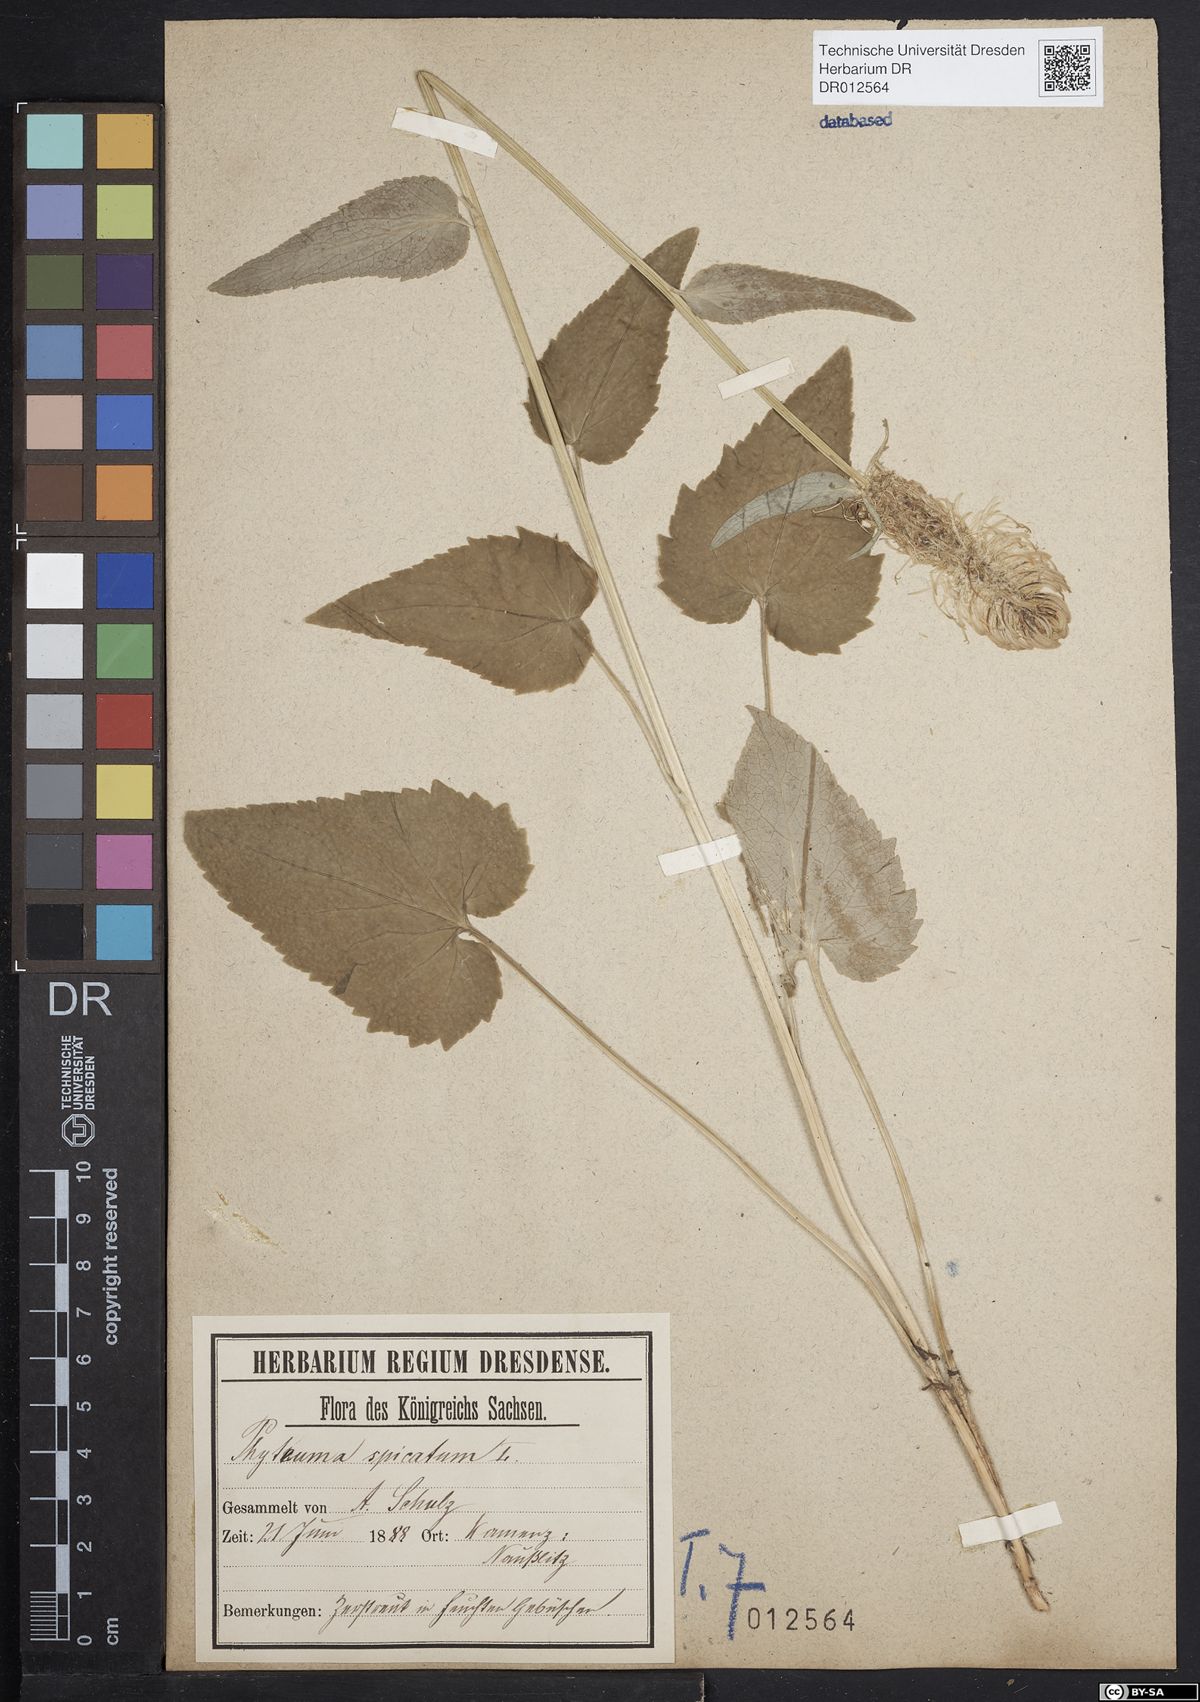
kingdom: Plantae
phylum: Tracheophyta
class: Magnoliopsida
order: Asterales
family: Campanulaceae
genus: Phyteuma
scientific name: Phyteuma spicatum
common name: Spiked rampion
